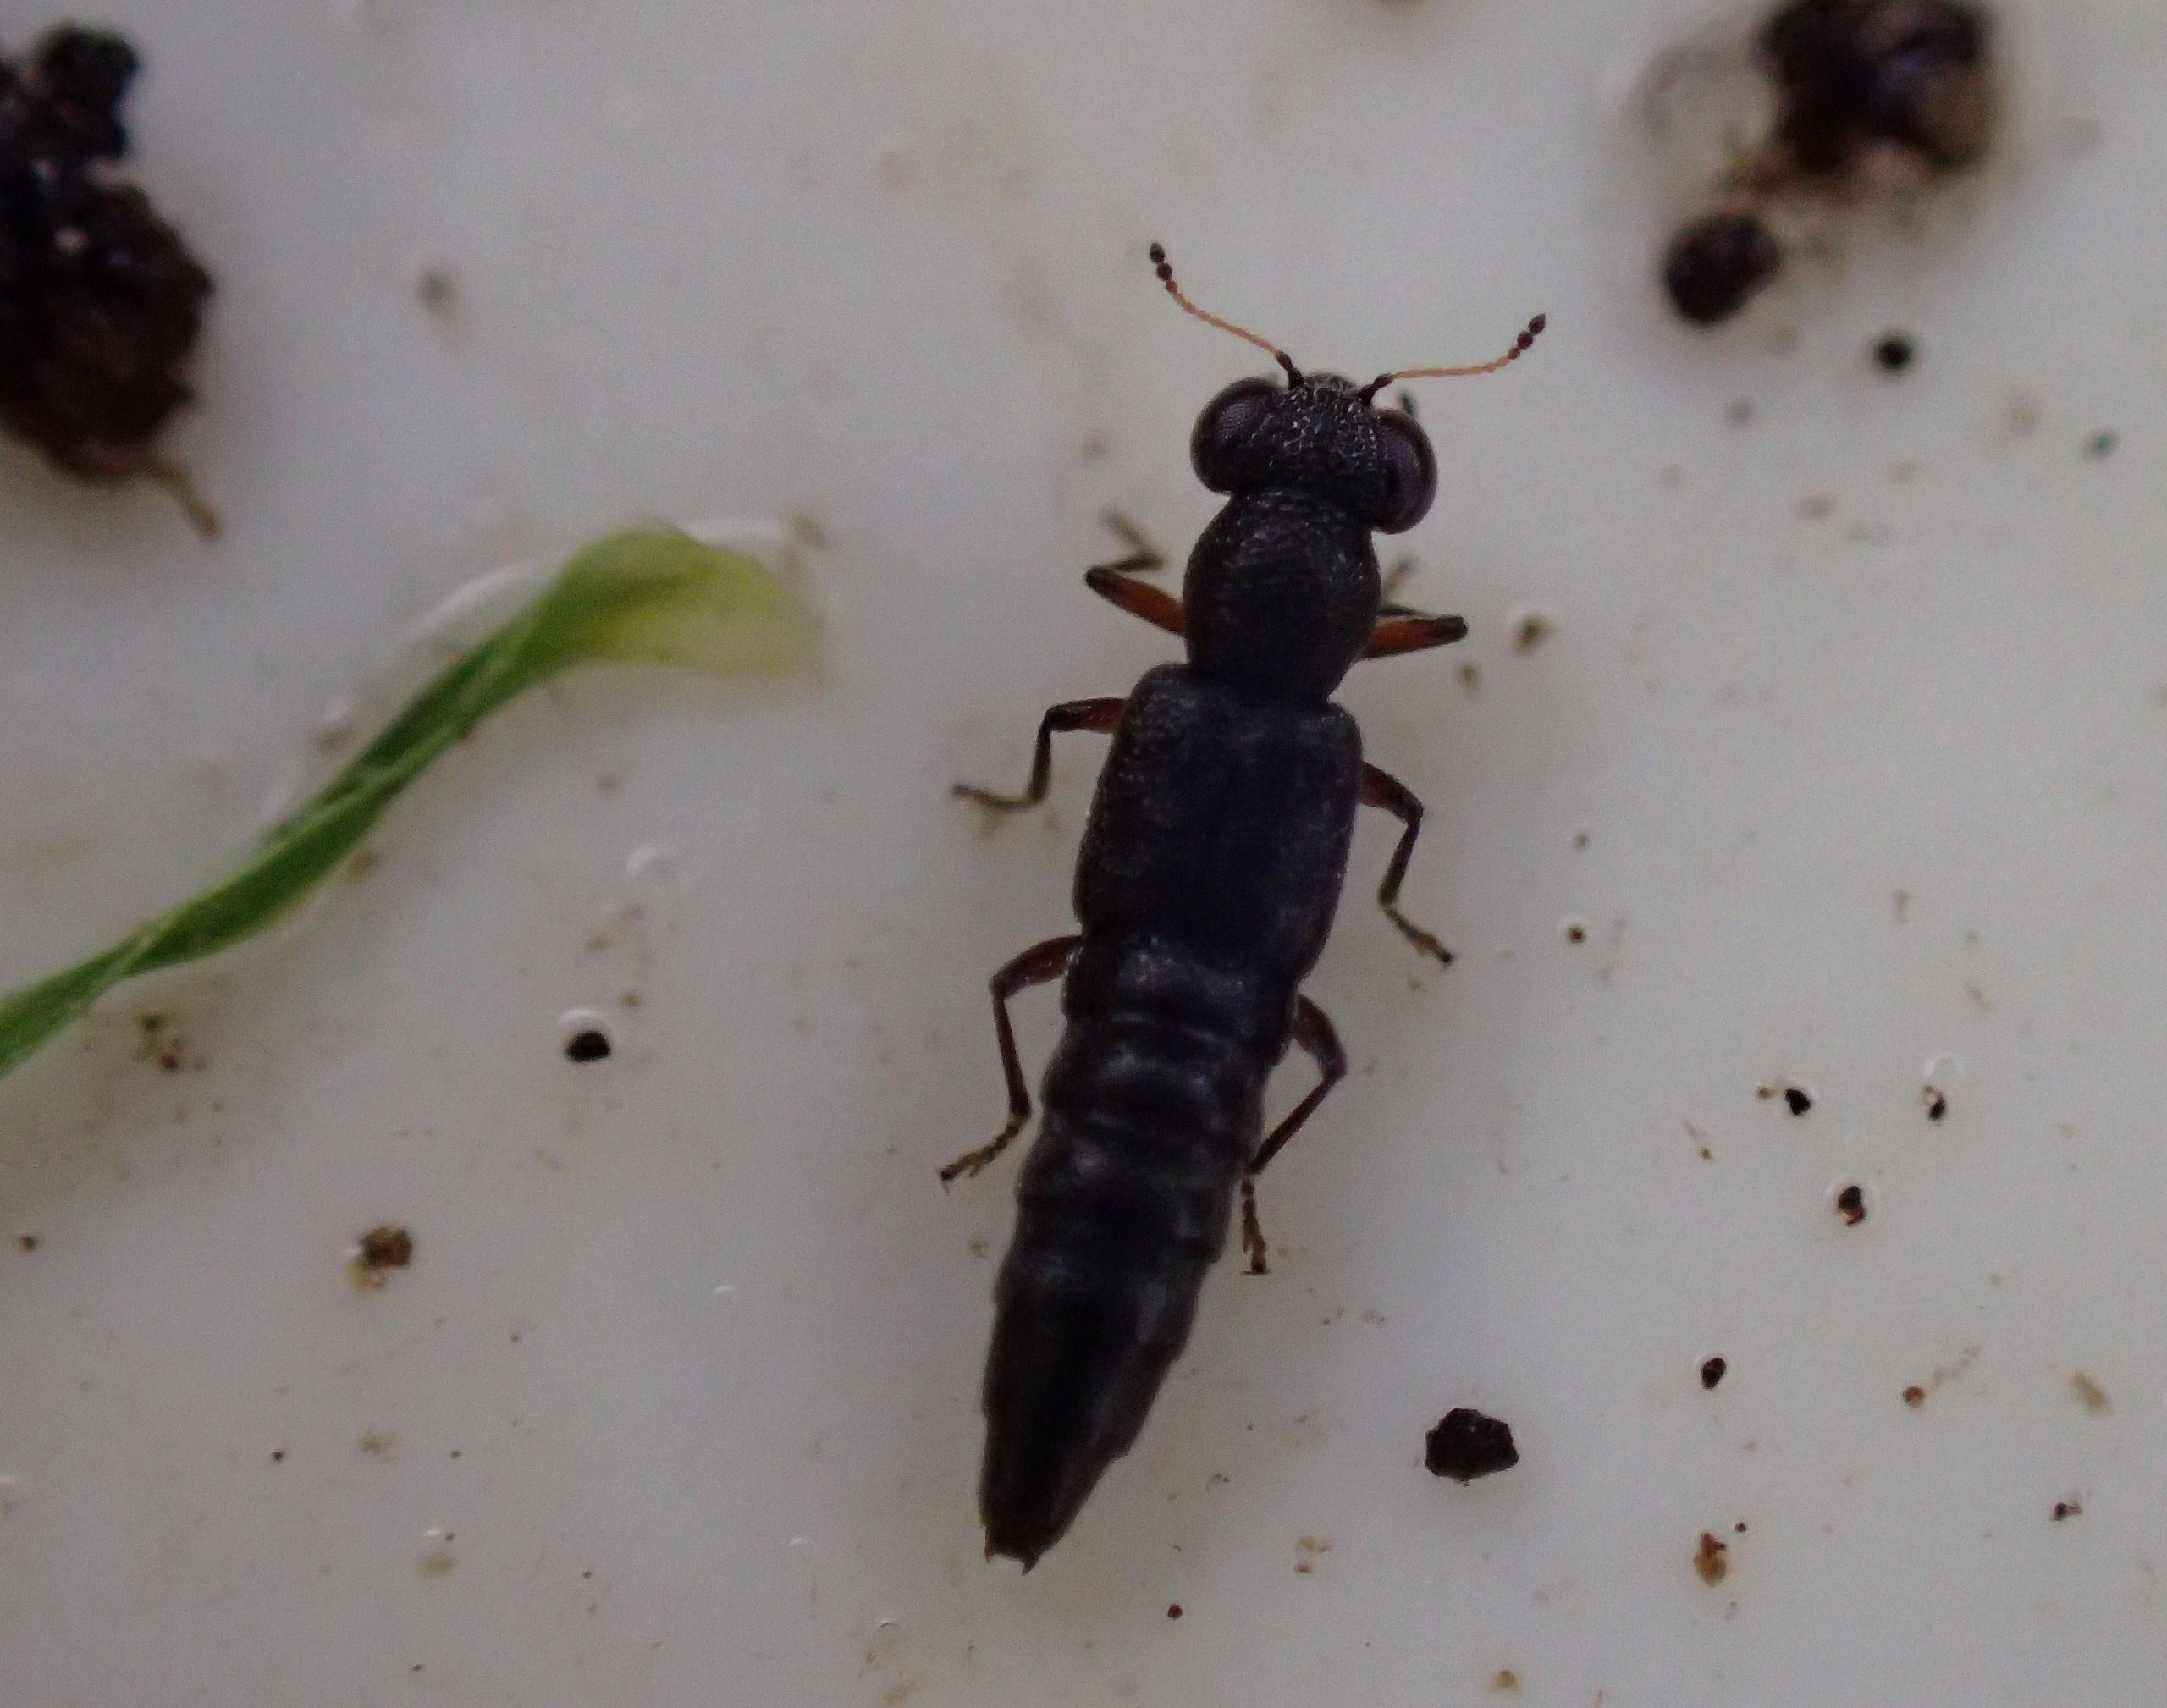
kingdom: Animalia
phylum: Arthropoda
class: Insecta
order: Coleoptera
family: Staphylinidae
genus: Stenus
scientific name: Stenus fulvicornis
